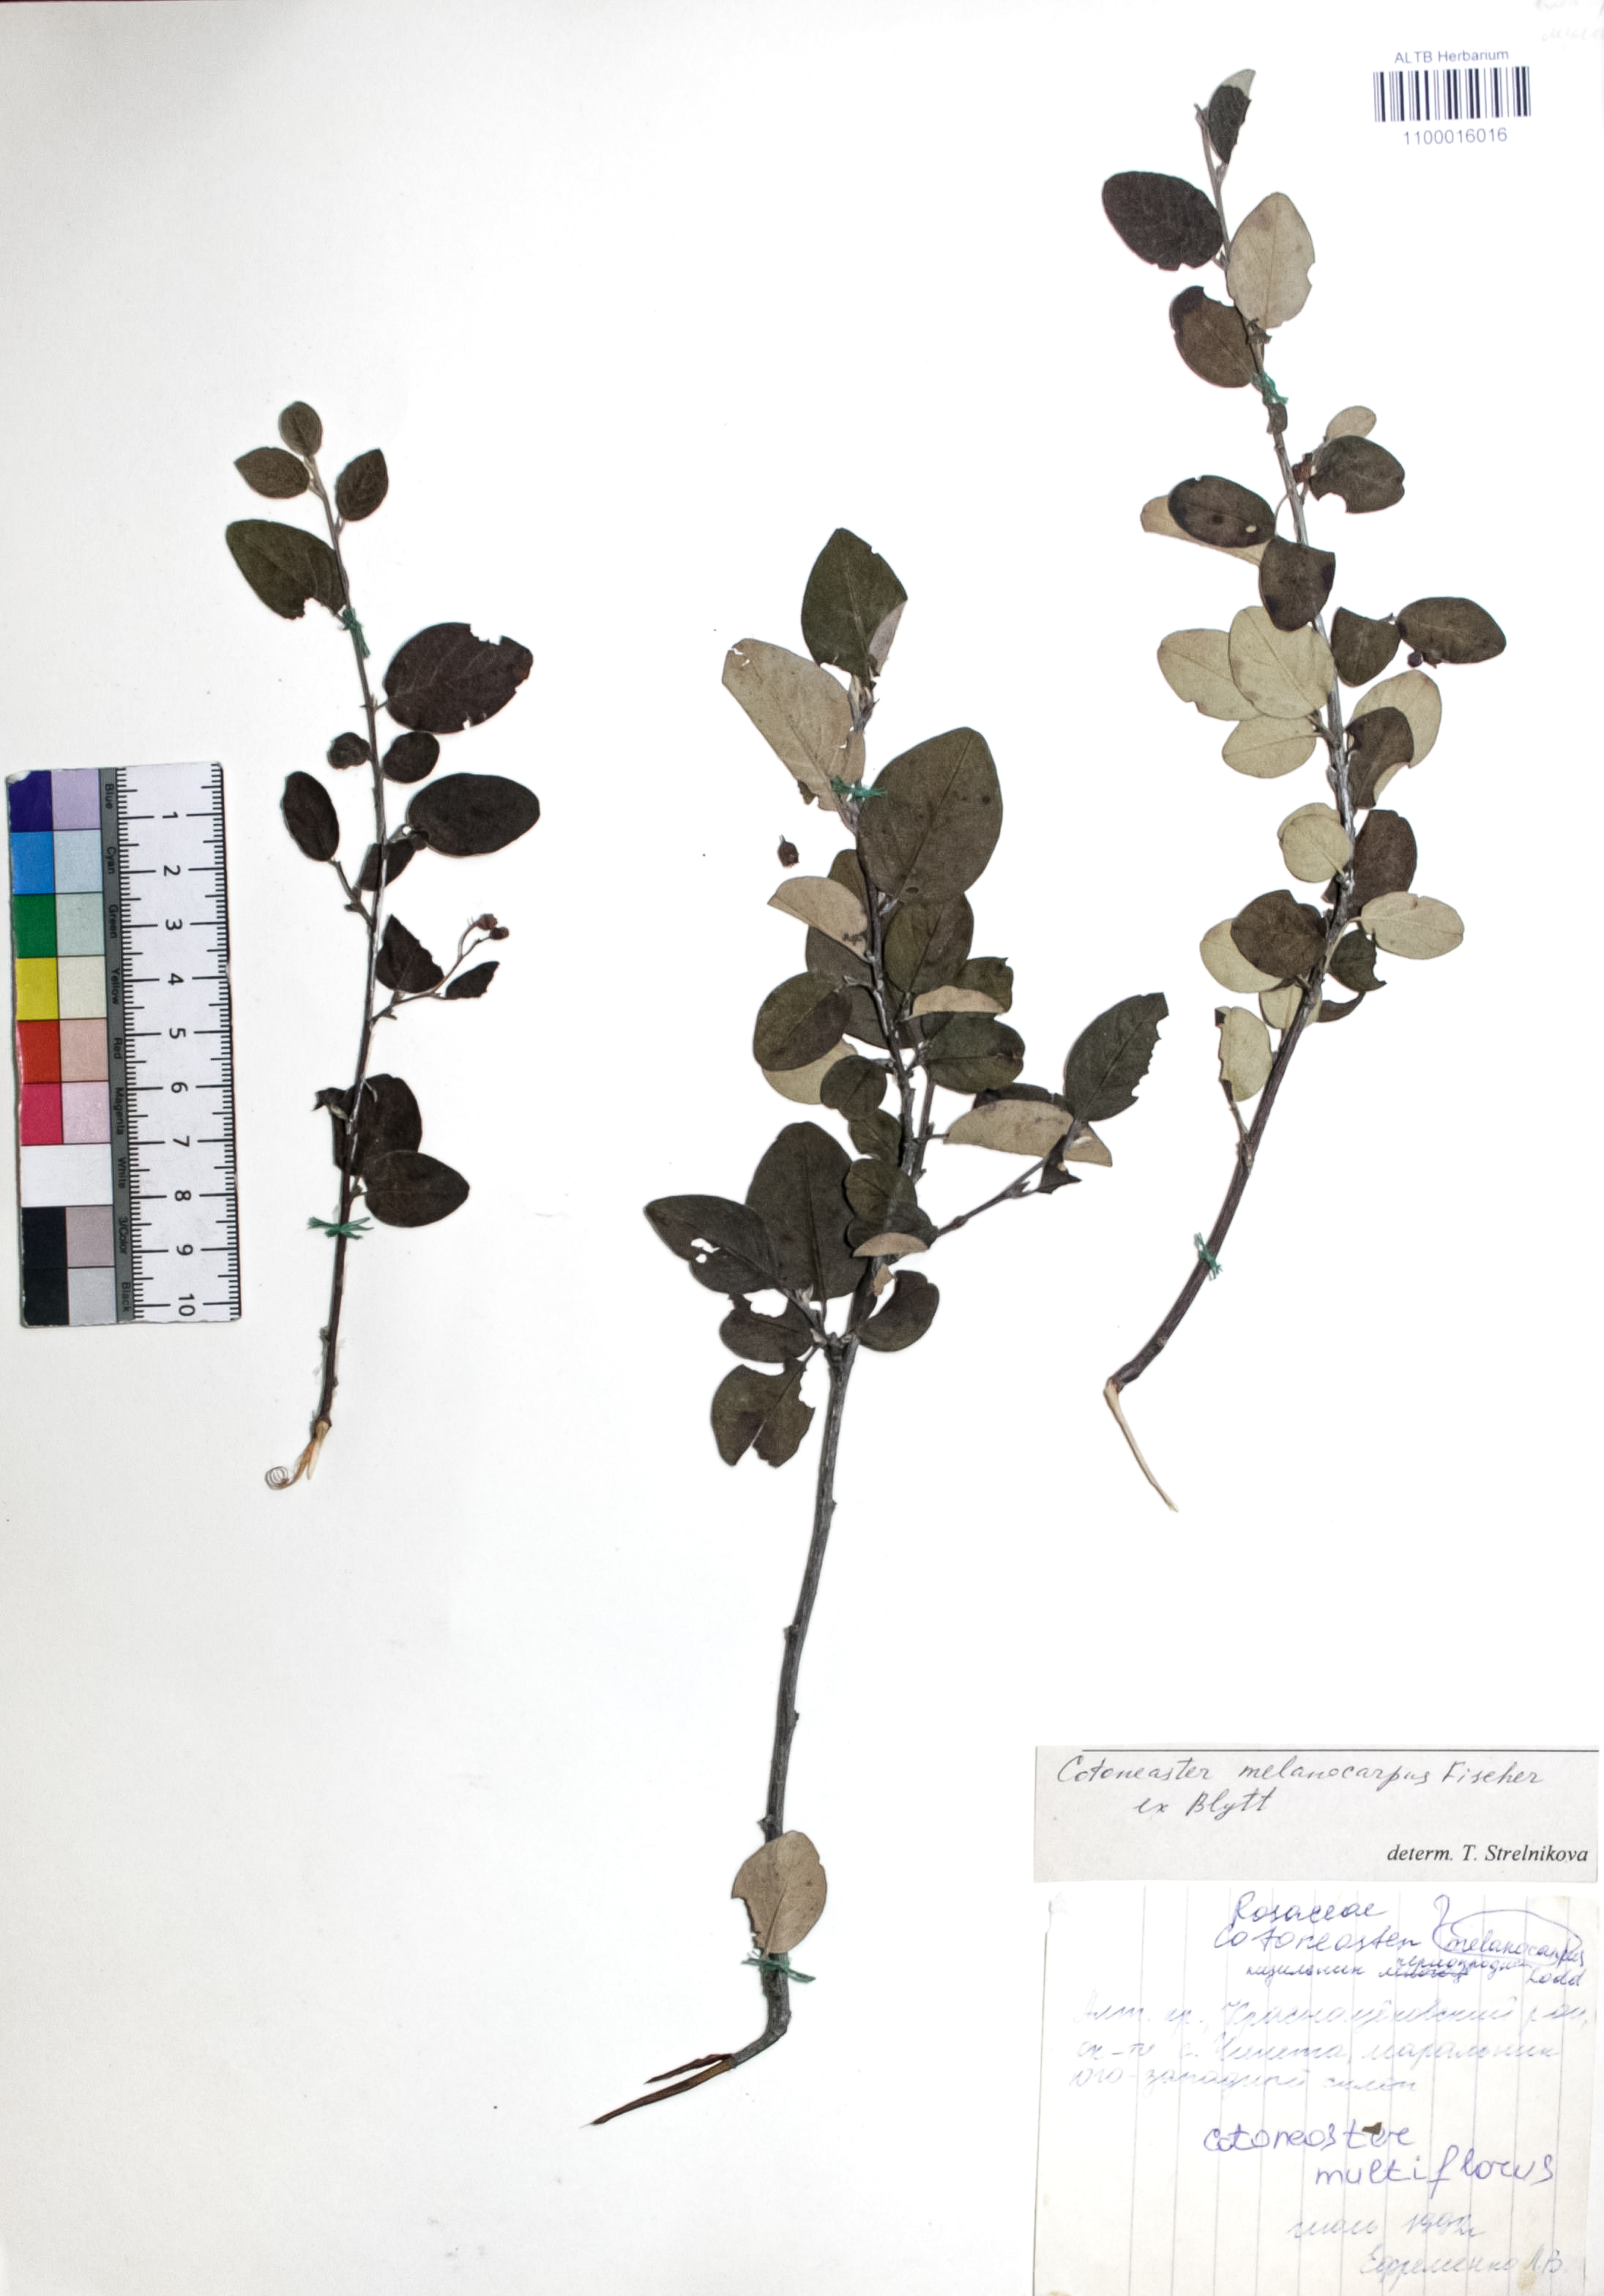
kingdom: Plantae
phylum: Tracheophyta
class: Magnoliopsida
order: Rosales
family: Rosaceae
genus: Cotoneaster
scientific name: Cotoneaster niger
